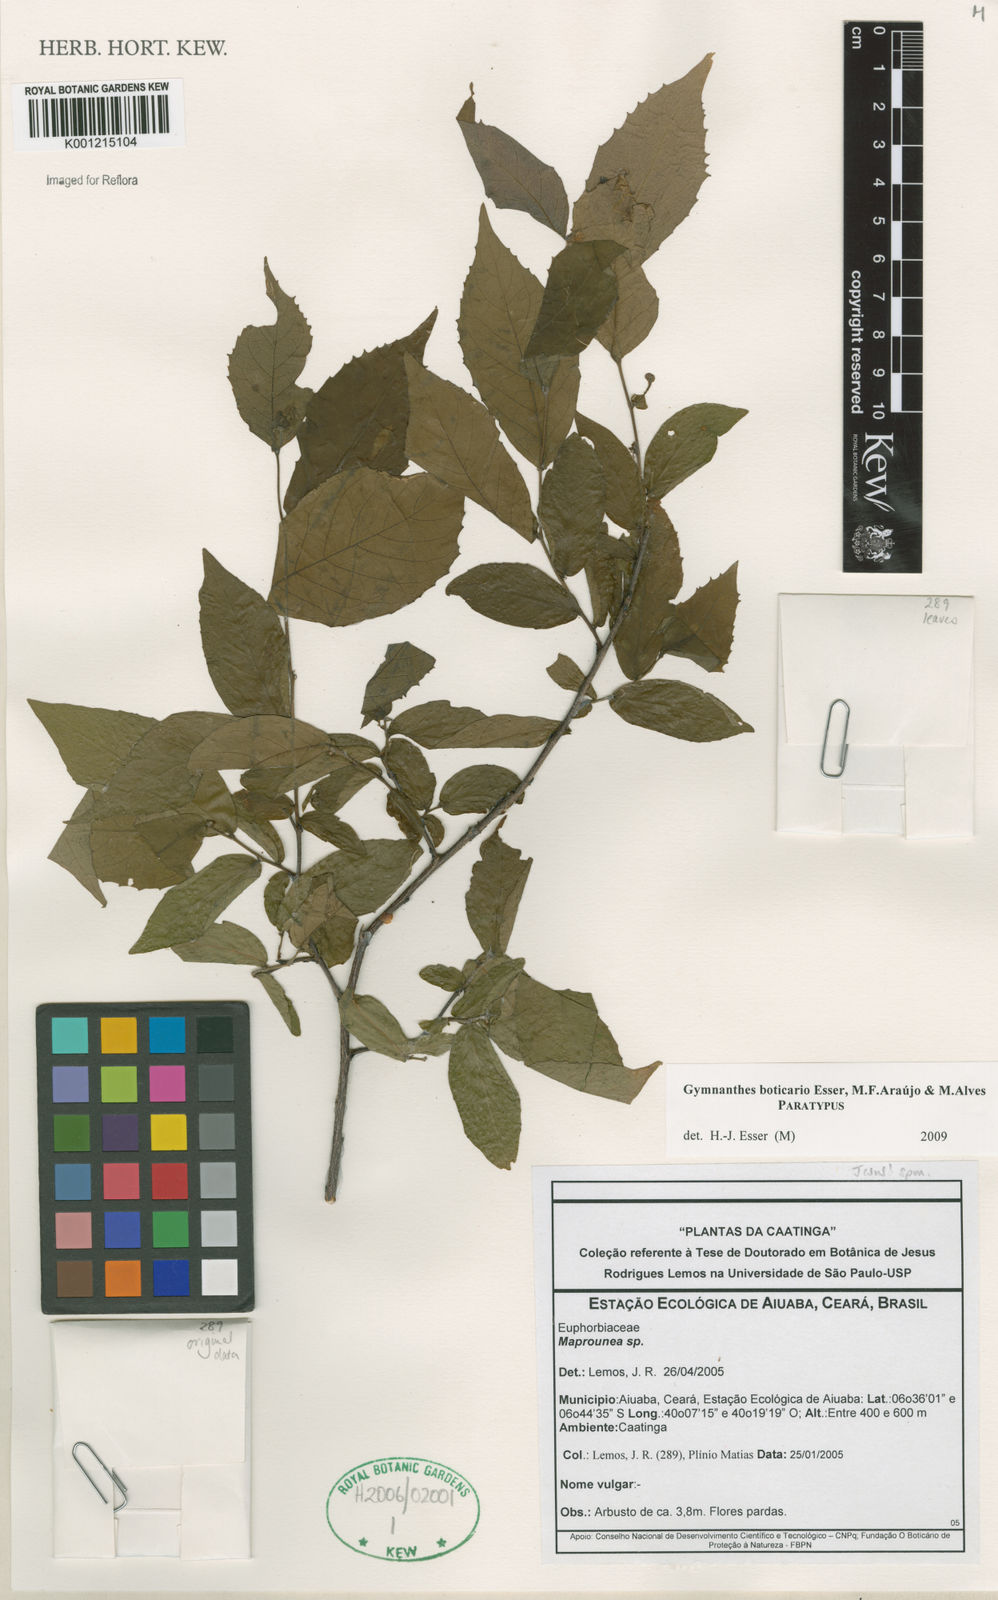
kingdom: Plantae
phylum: Tracheophyta
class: Magnoliopsida
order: Malpighiales
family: Euphorbiaceae
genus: Gymnanthes
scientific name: Gymnanthes boticario
